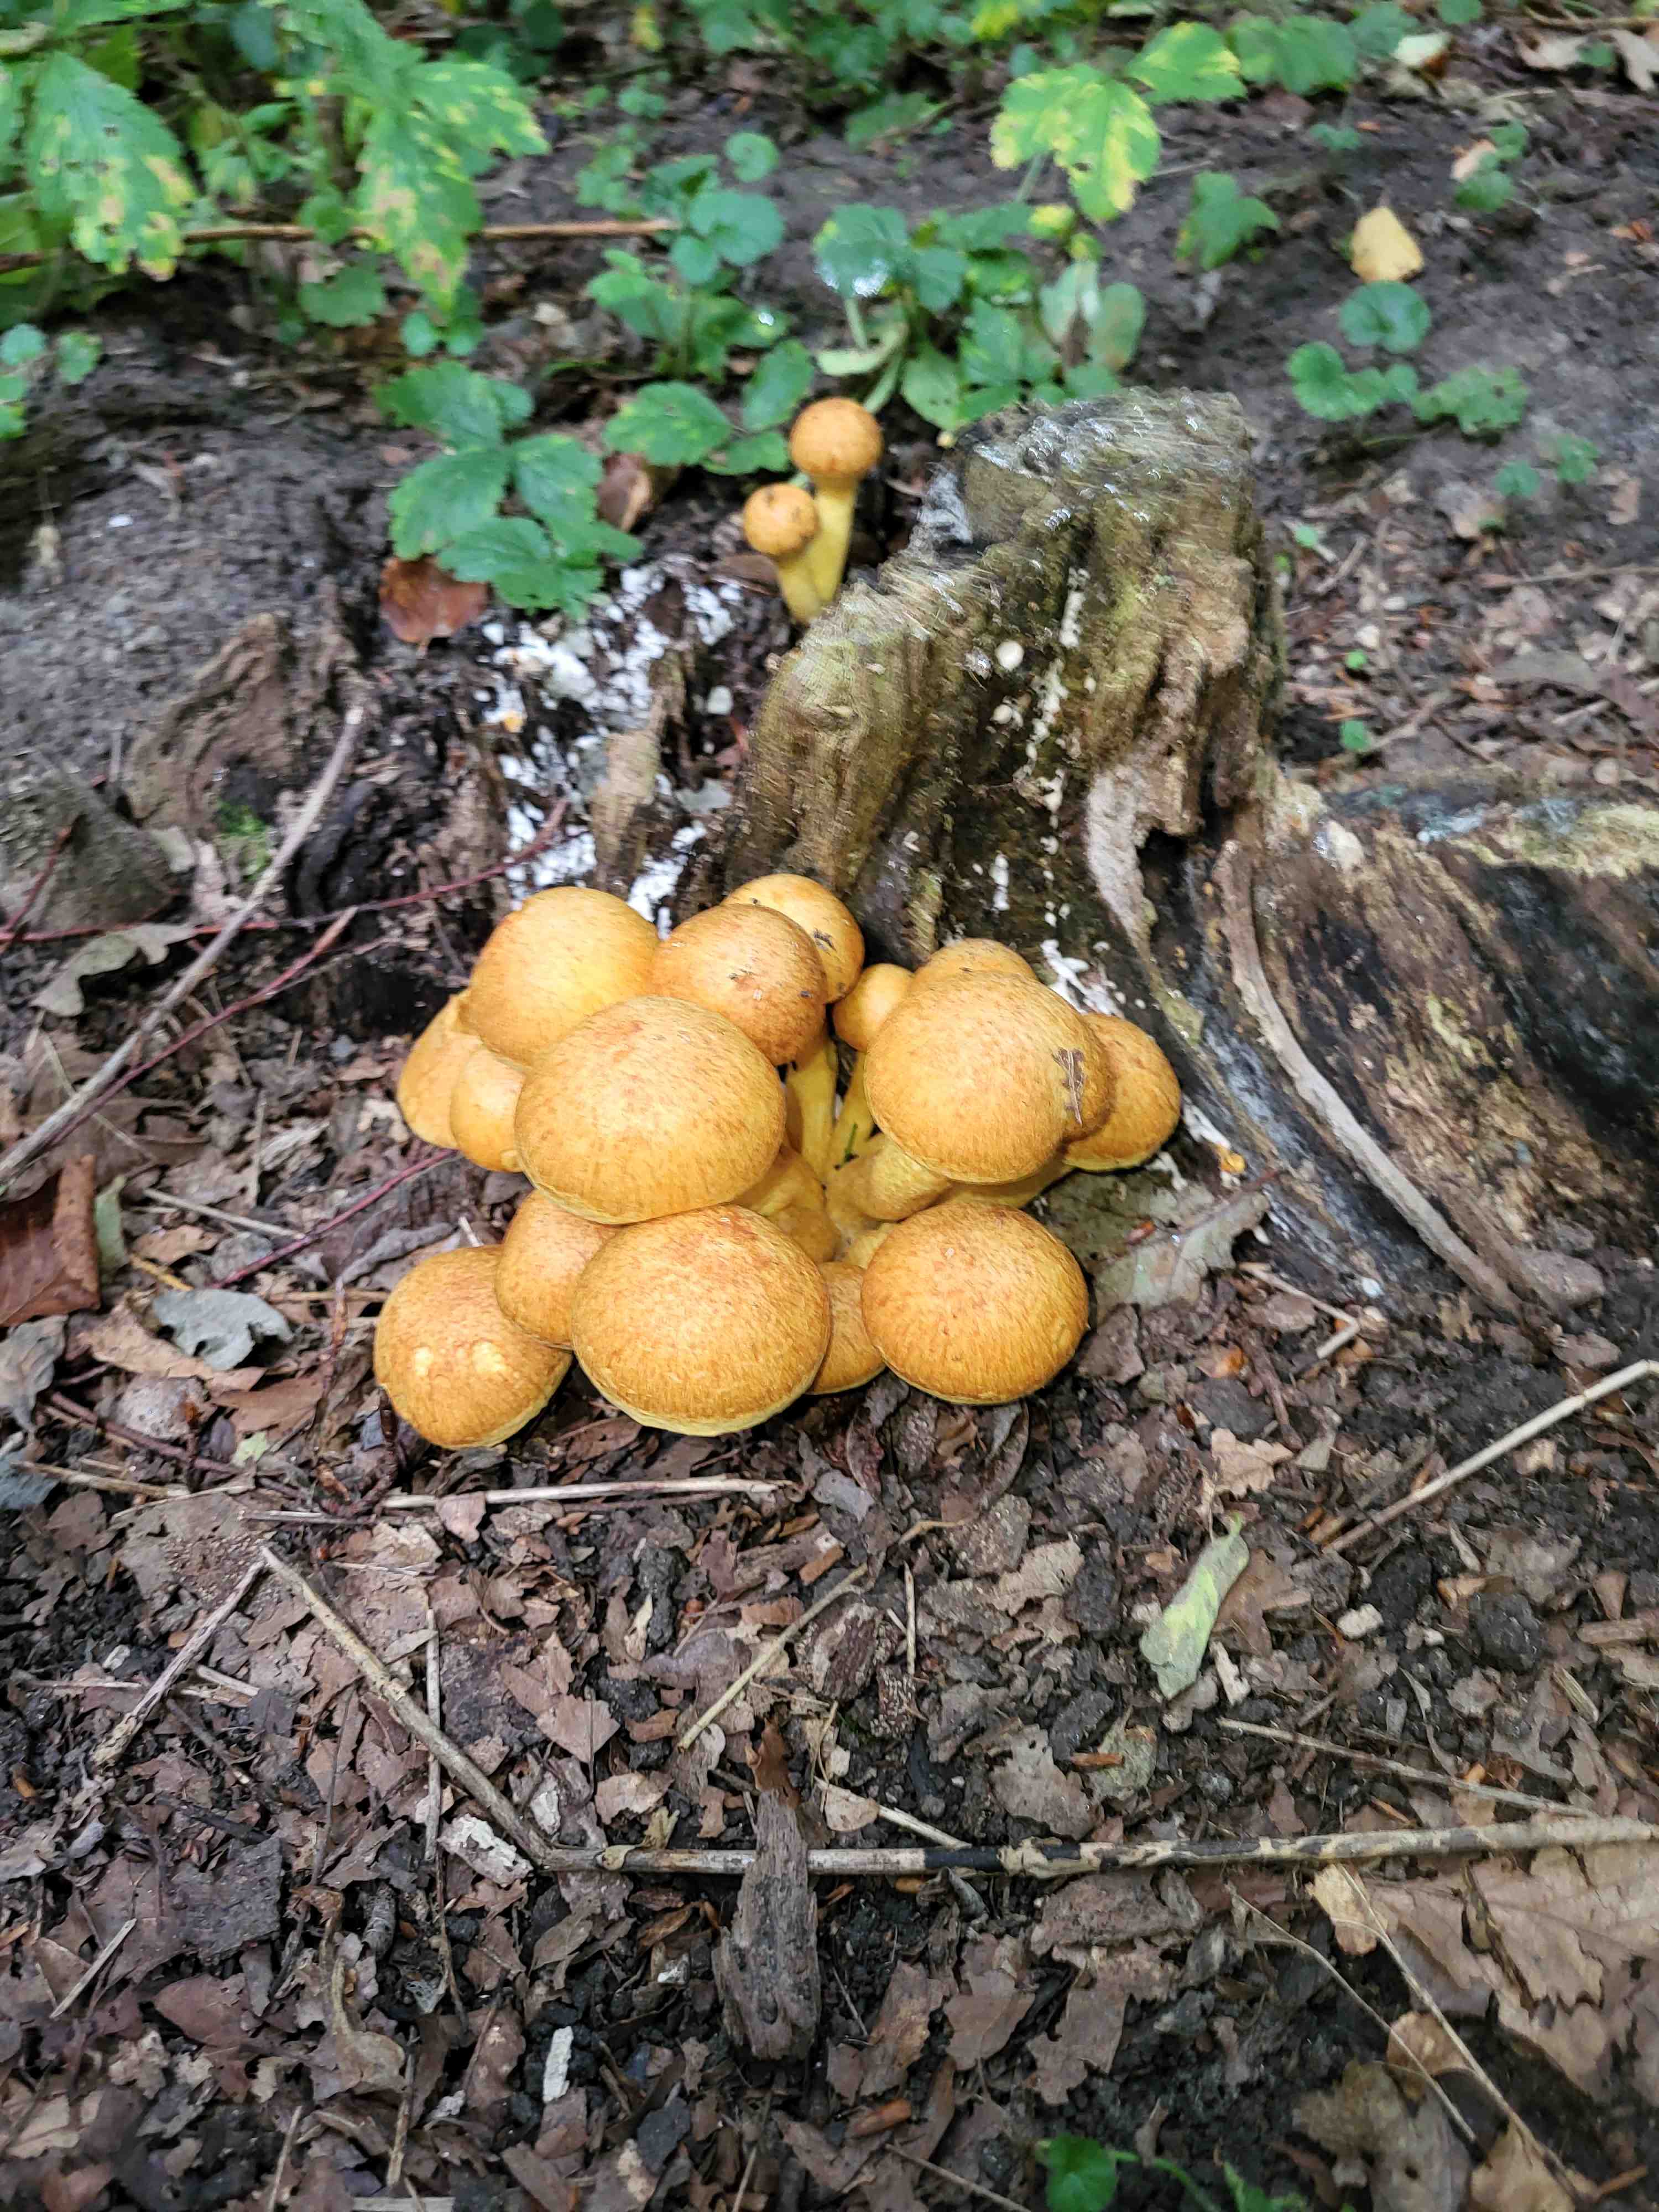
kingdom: Fungi
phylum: Basidiomycota
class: Agaricomycetes
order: Agaricales
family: Hymenogastraceae
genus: Gymnopilus
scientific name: Gymnopilus spectabilis
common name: fibret flammehat
